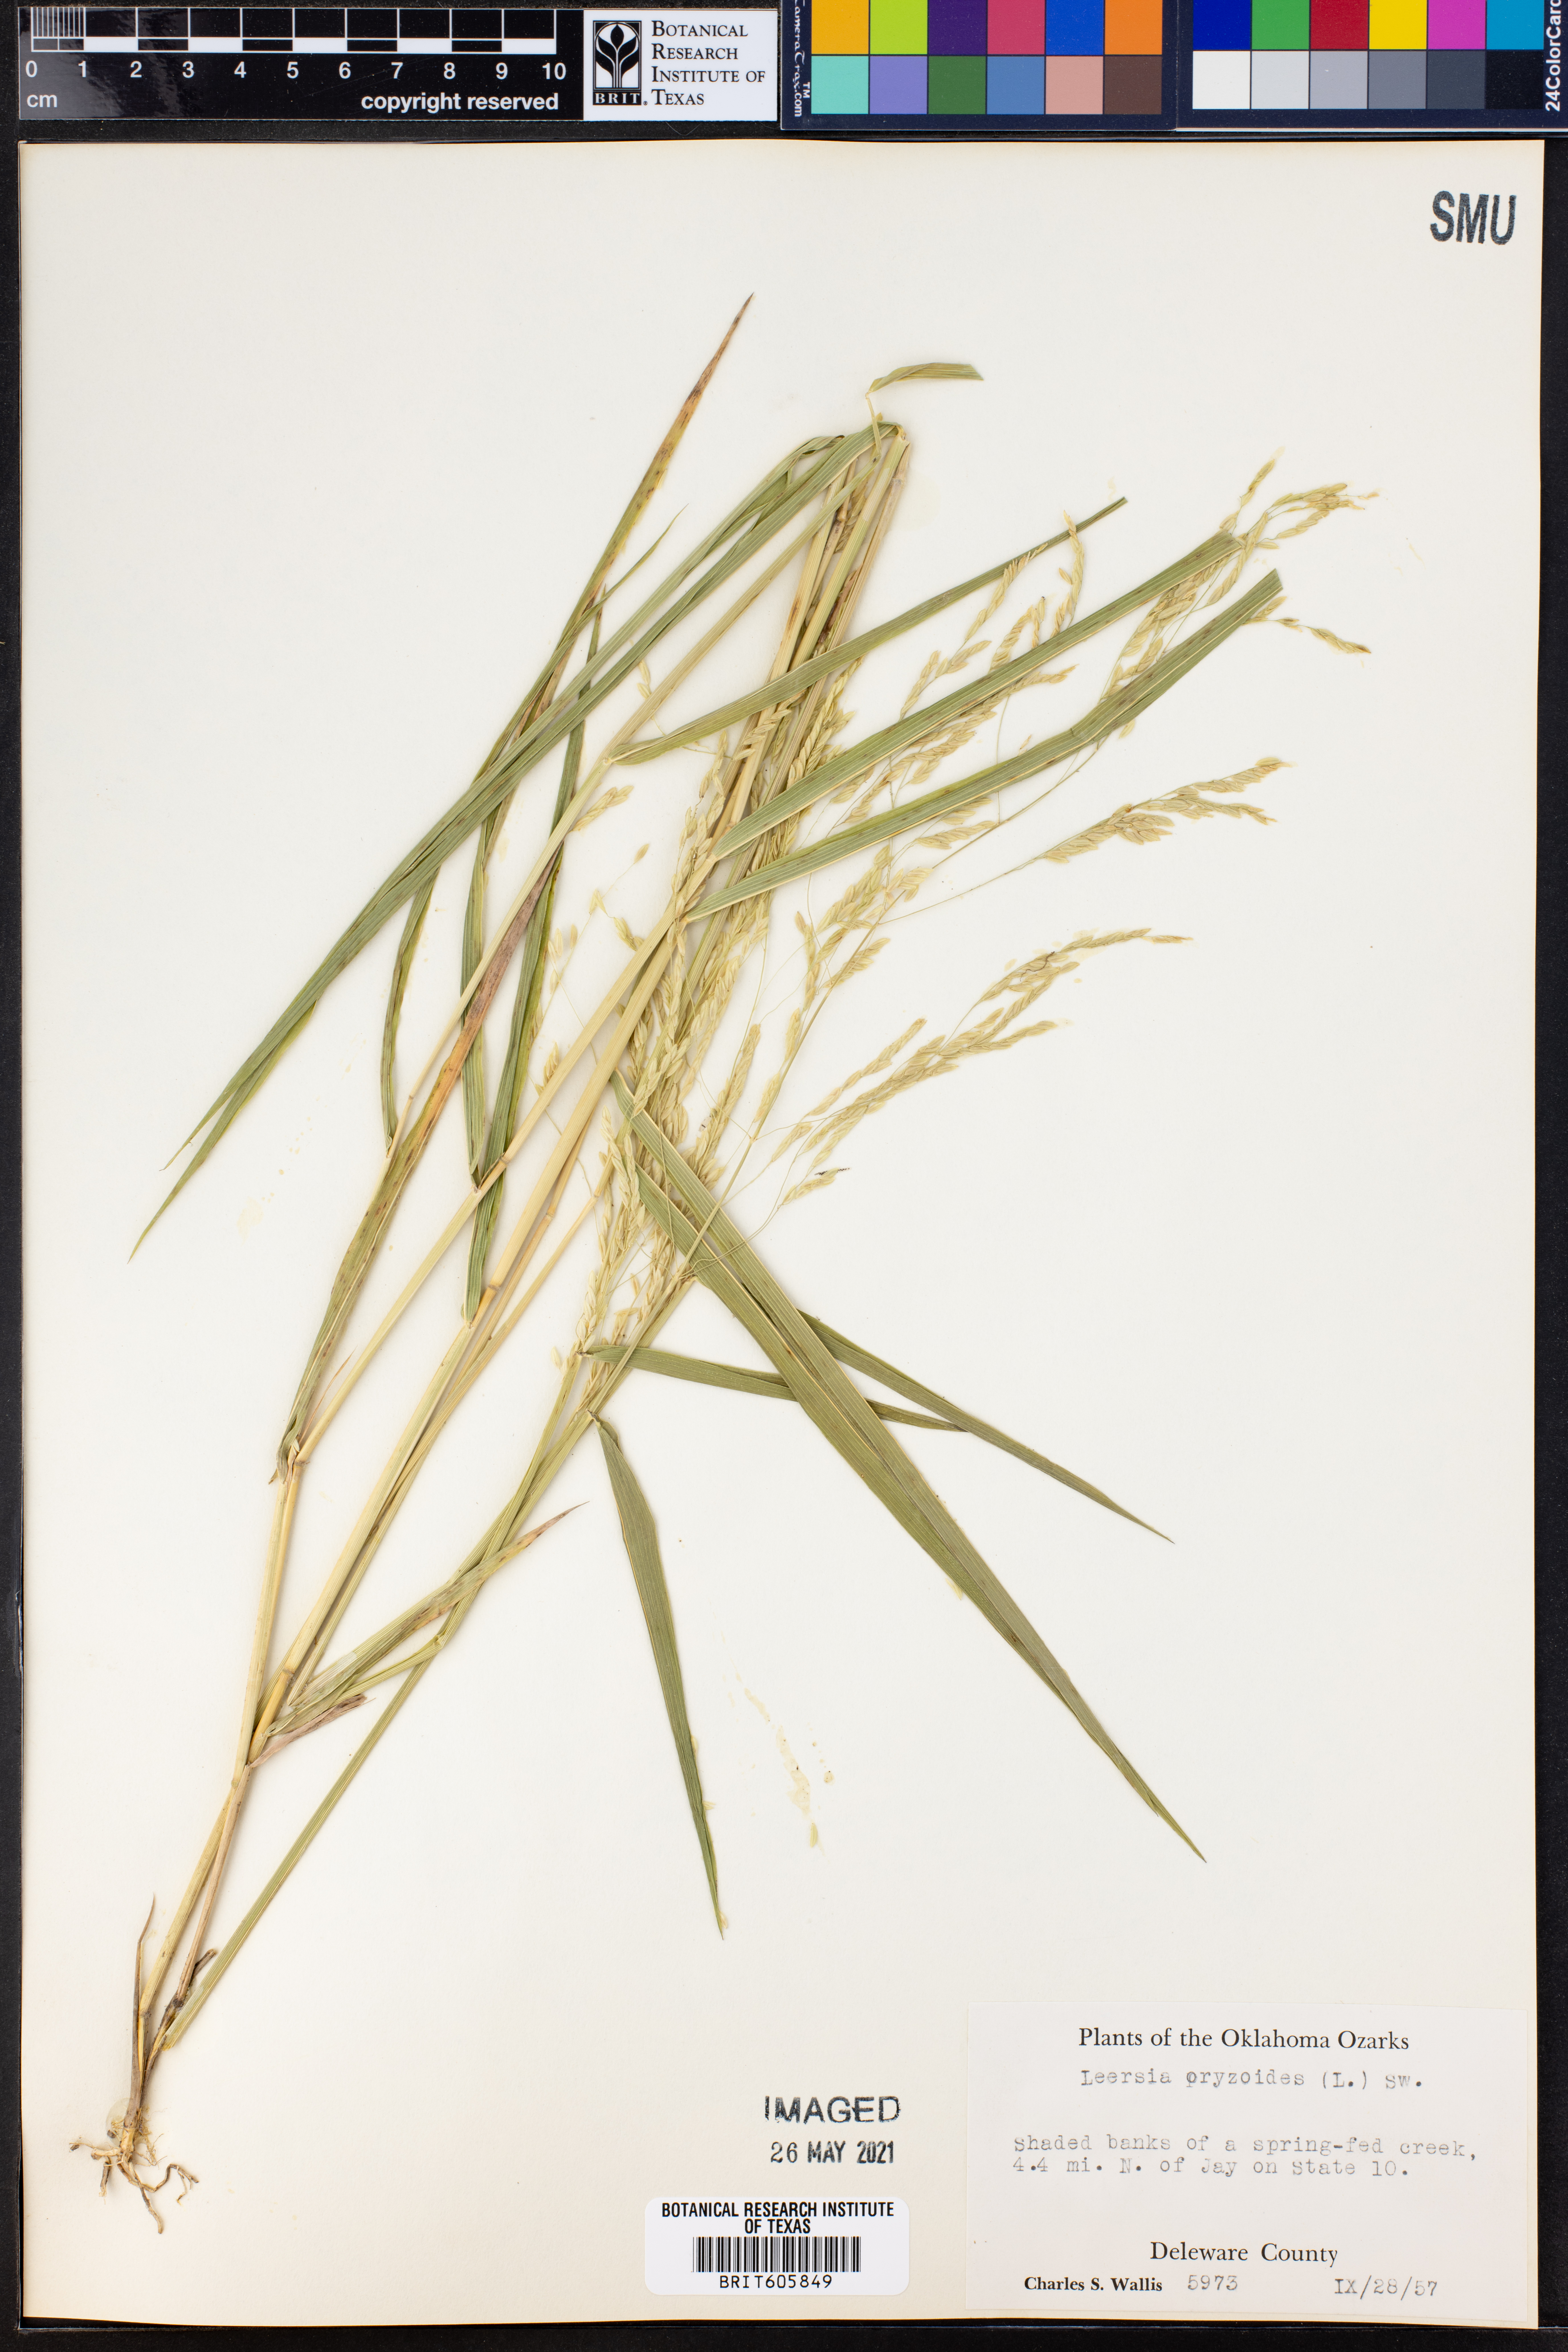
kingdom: Plantae
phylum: Tracheophyta
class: Liliopsida
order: Poales
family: Poaceae
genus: Leersia
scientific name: Leersia oryzoides
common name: Cut-grass
